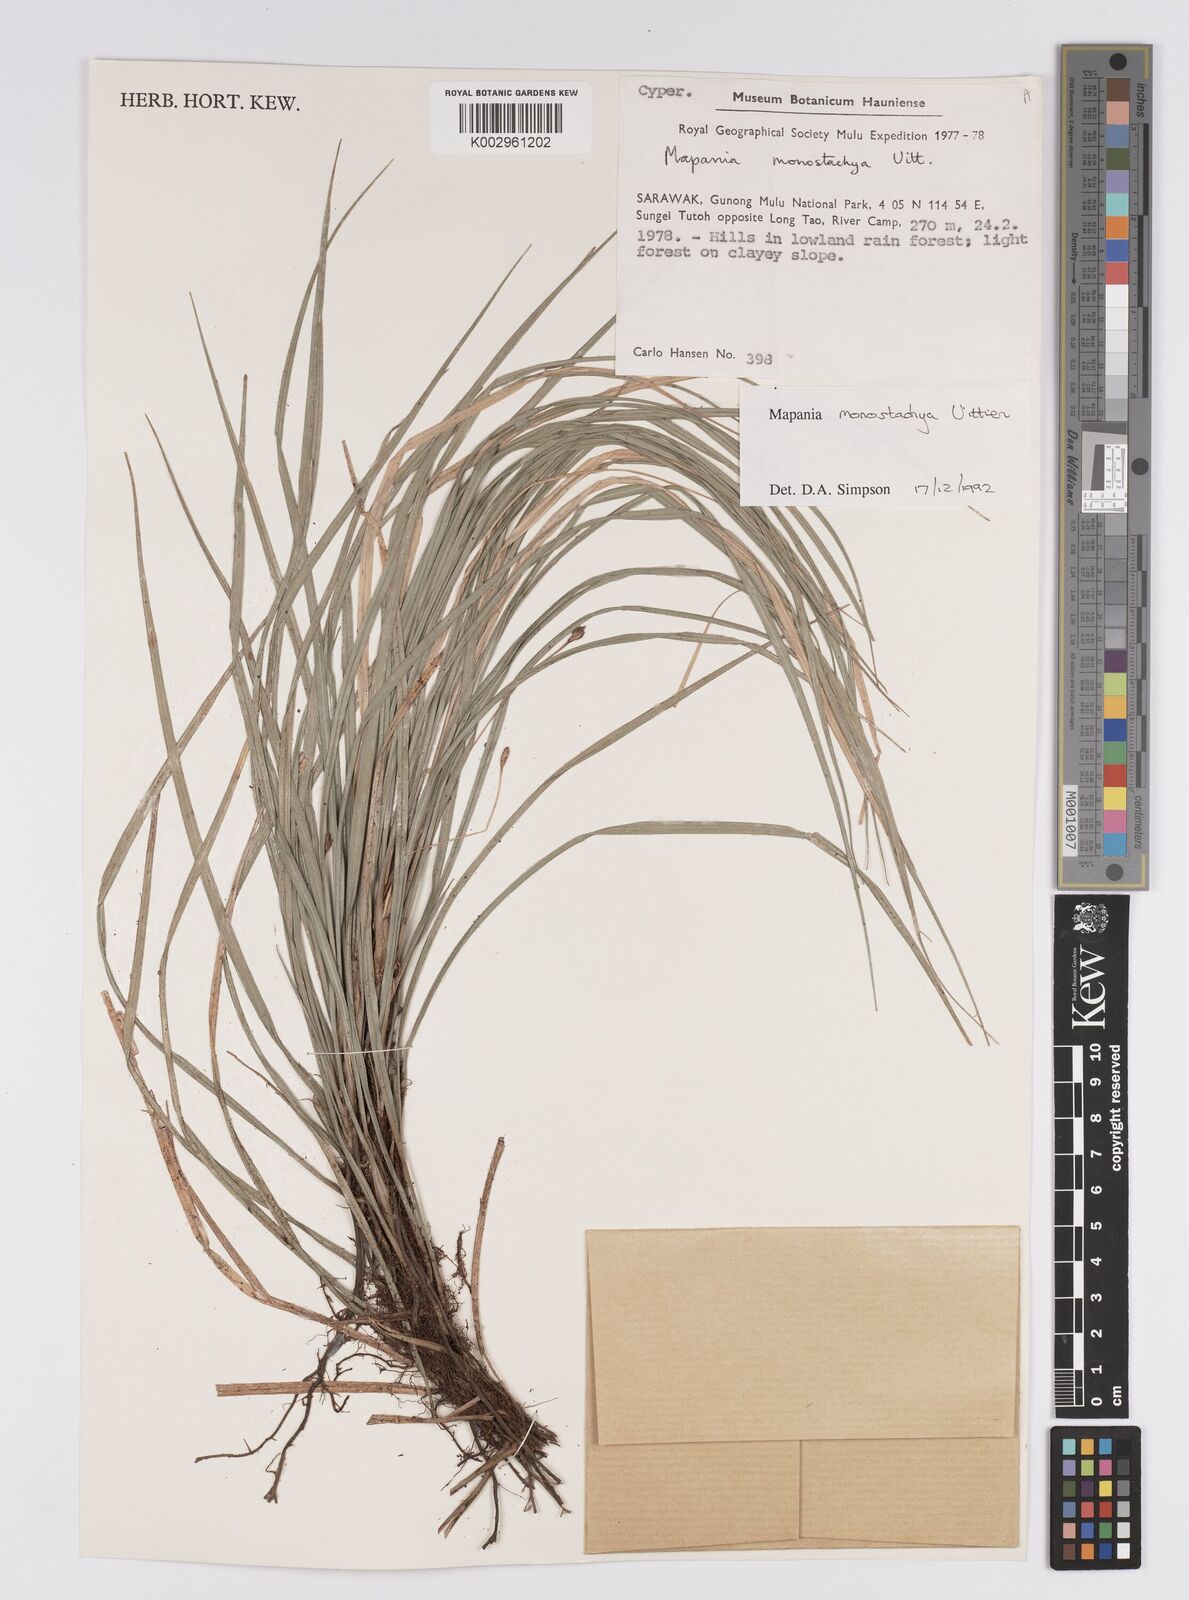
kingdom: Plantae
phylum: Tracheophyta
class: Liliopsida
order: Poales
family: Cyperaceae
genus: Mapania
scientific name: Mapania monostachya
